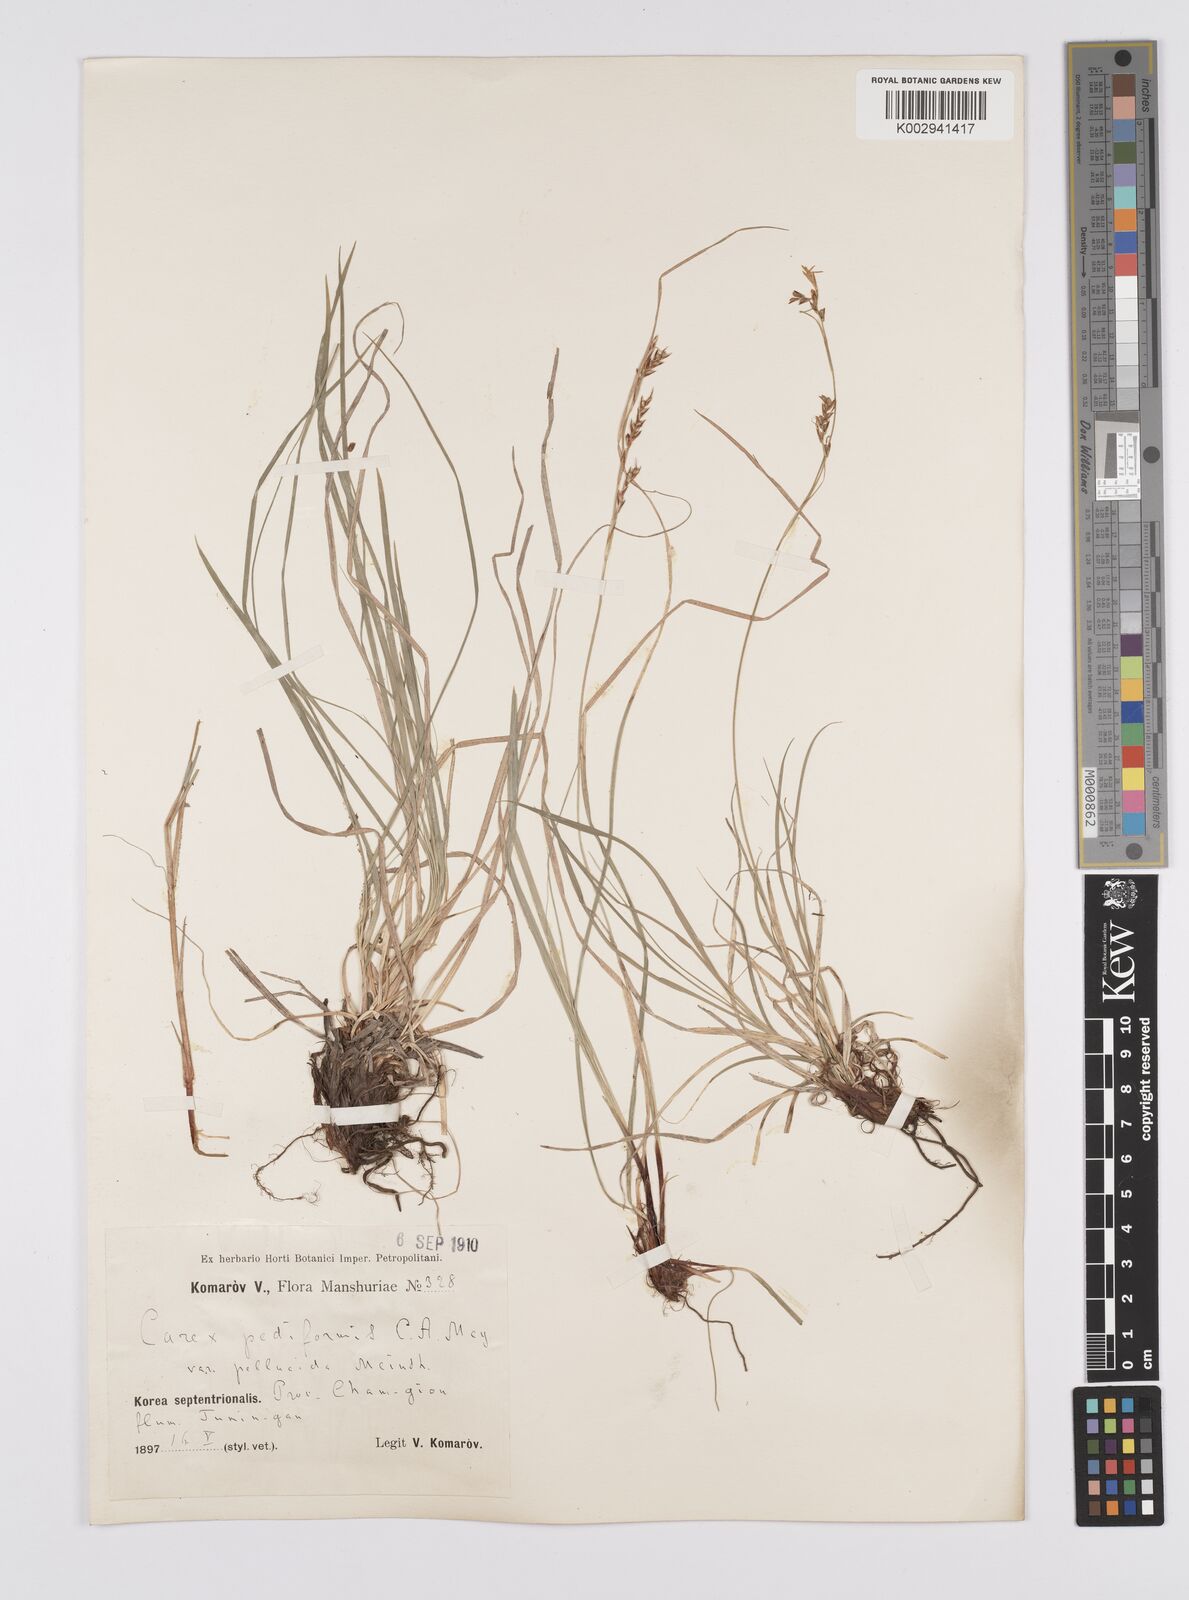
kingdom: Plantae
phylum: Tracheophyta
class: Liliopsida
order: Poales
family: Cyperaceae
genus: Carex
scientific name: Carex pediformis
